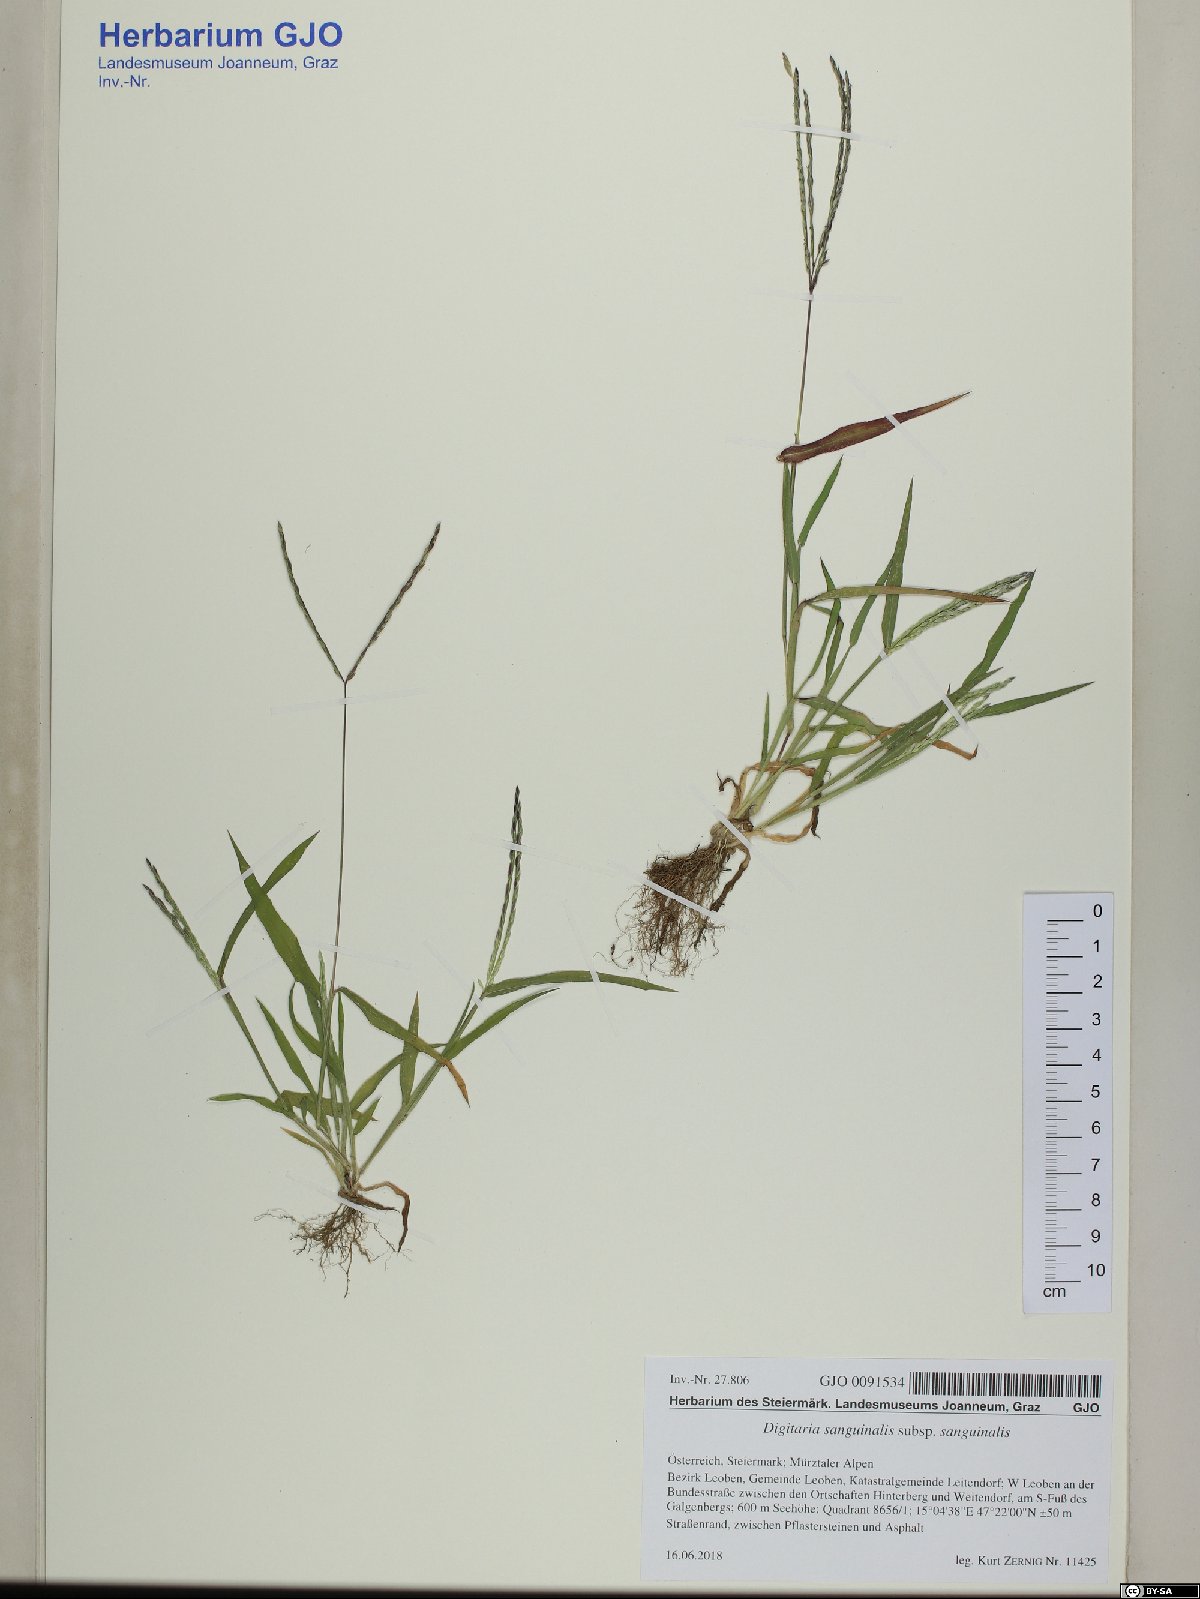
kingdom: Plantae
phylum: Tracheophyta
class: Liliopsida
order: Poales
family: Poaceae
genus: Digitaria
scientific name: Digitaria sanguinalis
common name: Hairy crabgrass
